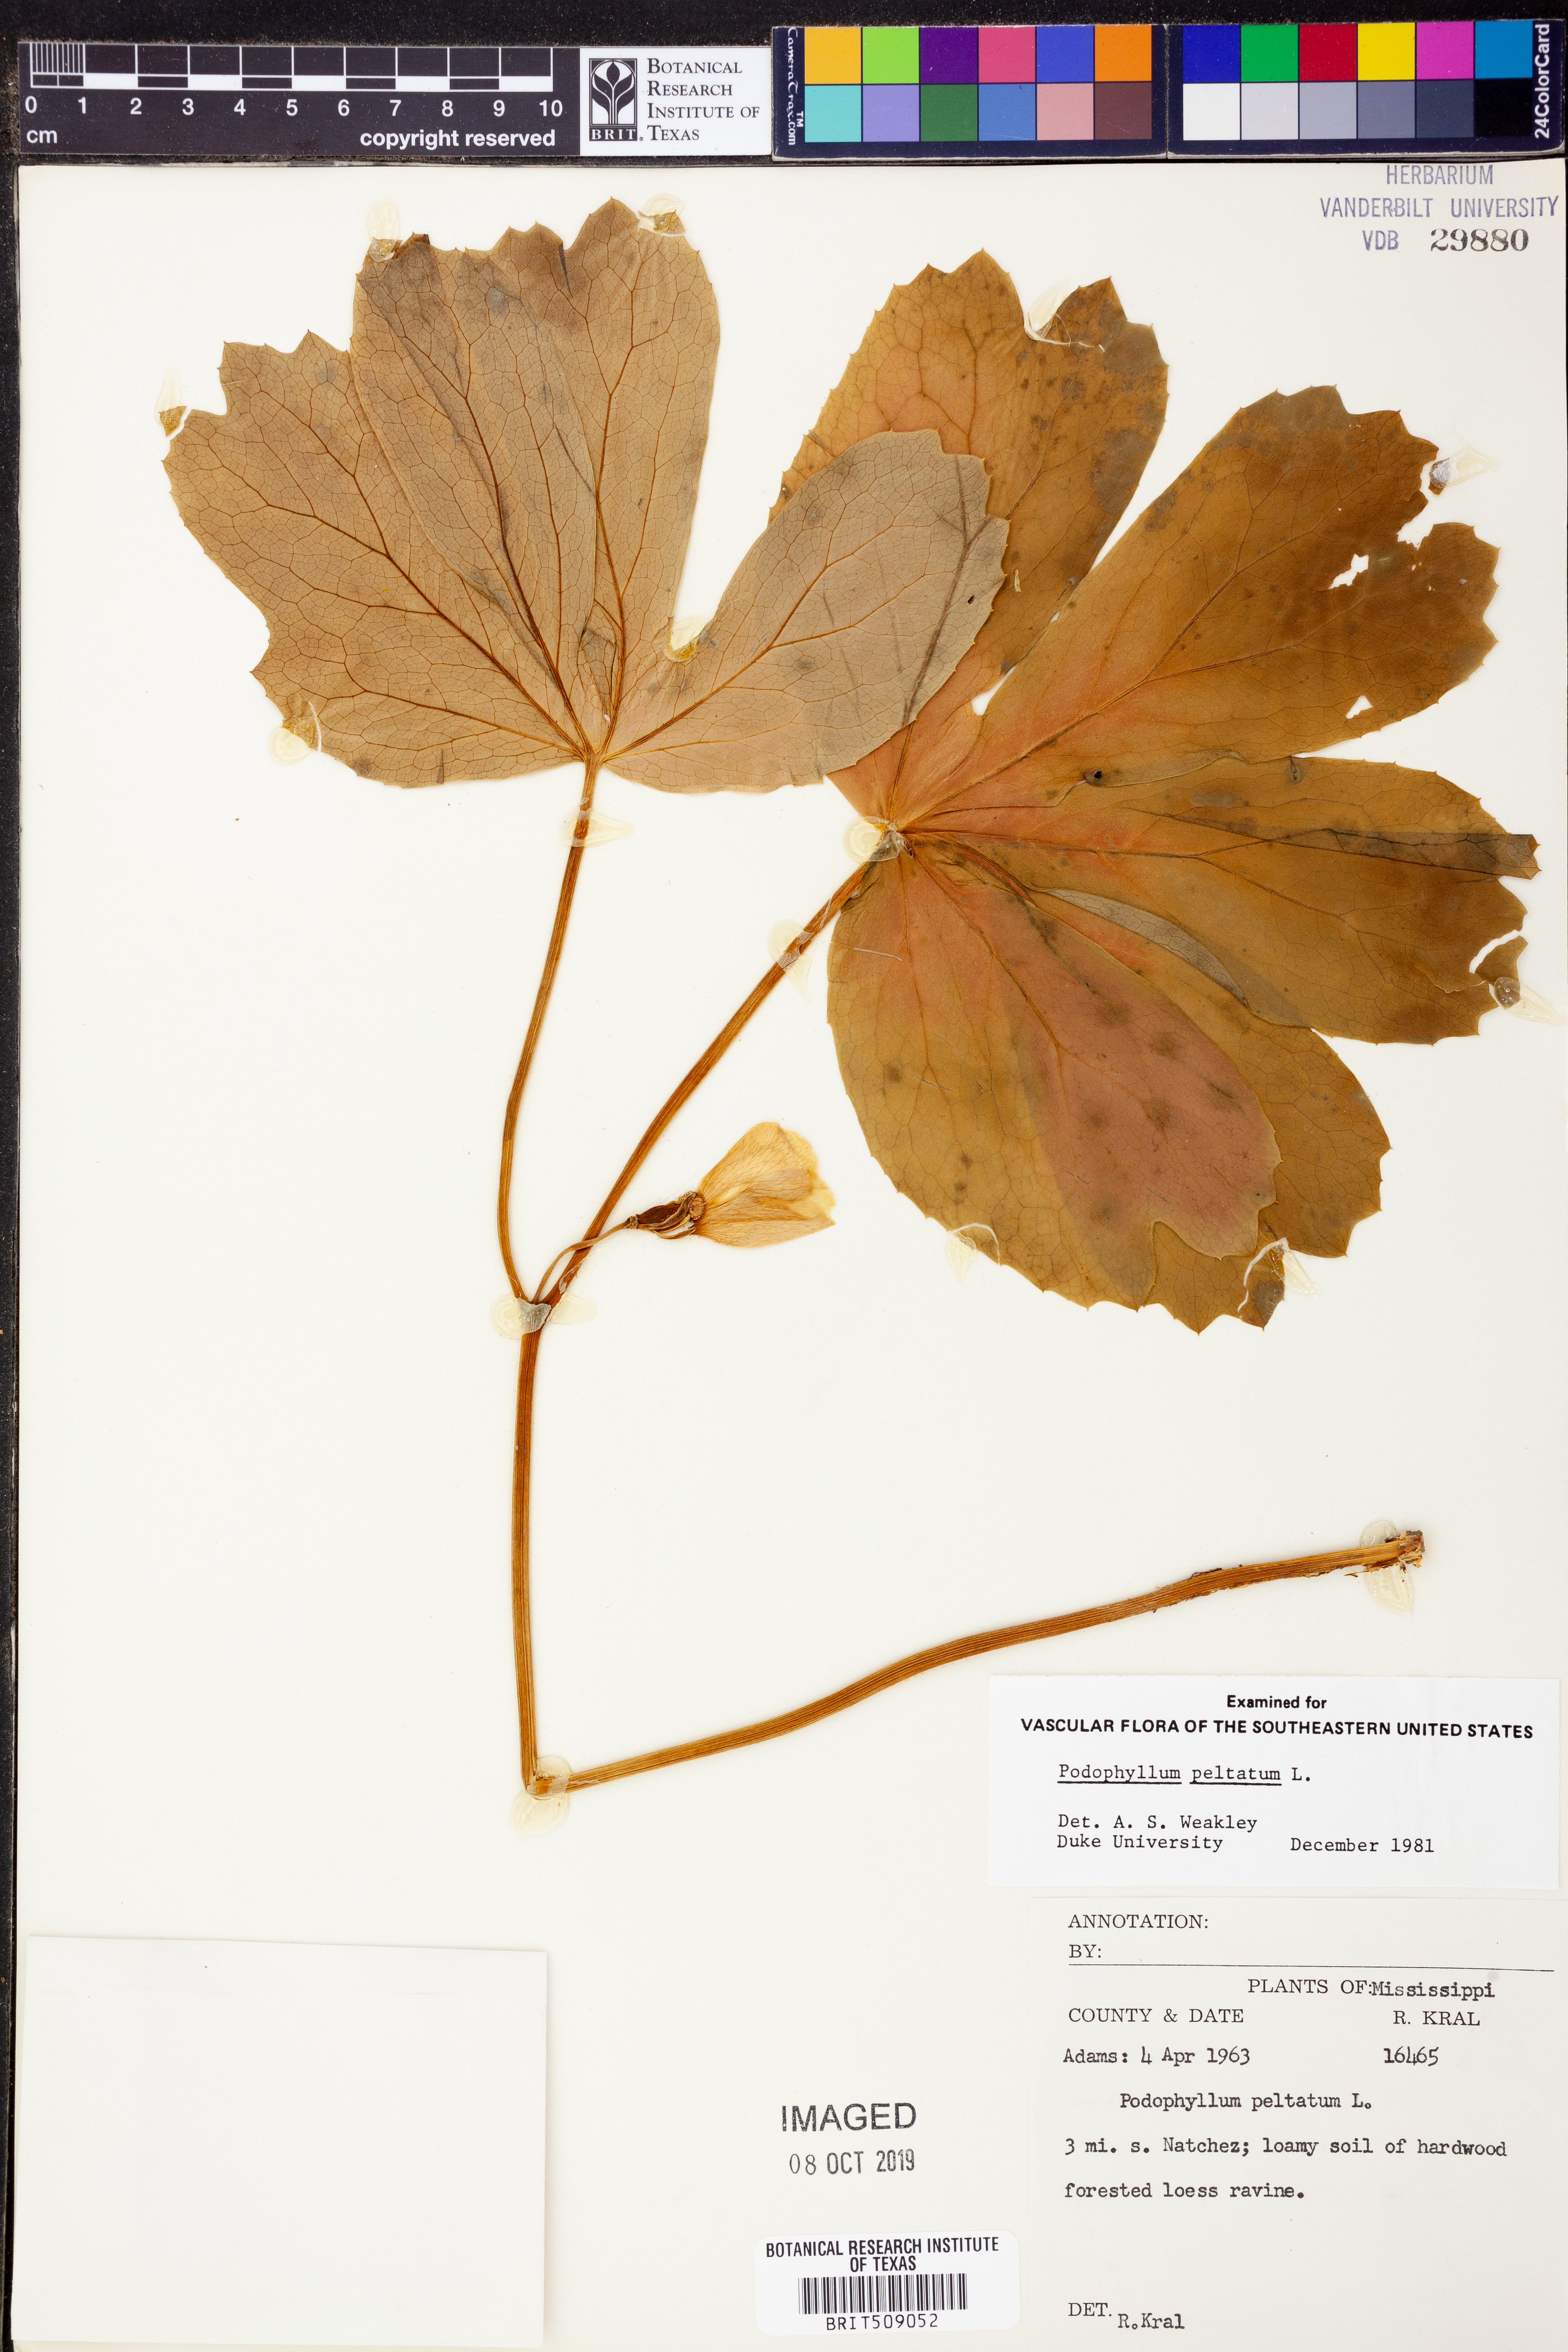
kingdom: Plantae
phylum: Tracheophyta
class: Magnoliopsida
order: Ranunculales
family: Berberidaceae
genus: Podophyllum
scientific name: Podophyllum peltatum
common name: Wild mandrake
